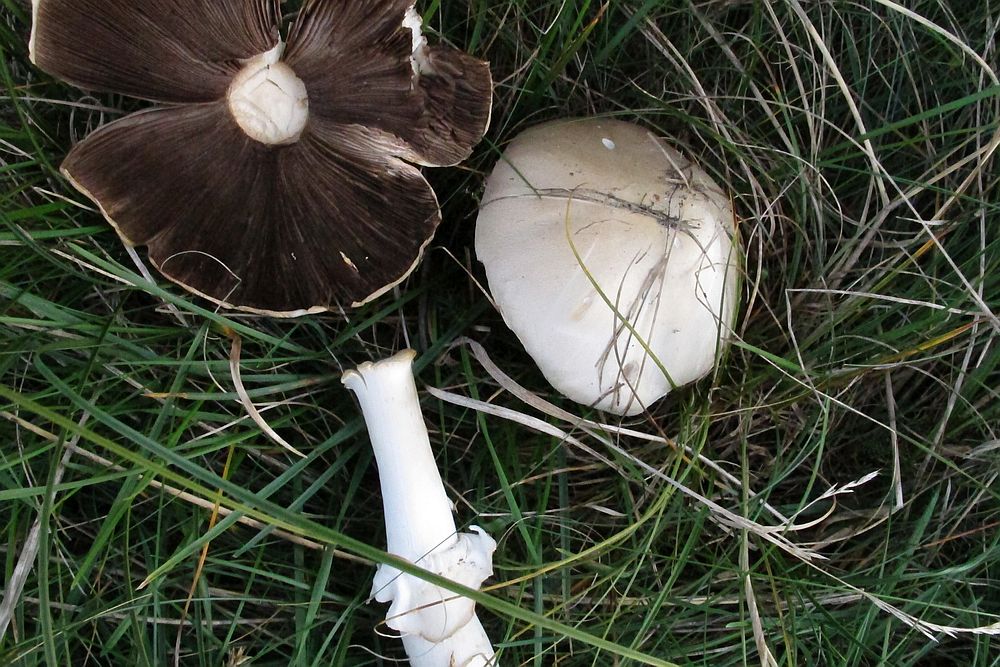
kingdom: Fungi
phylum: Basidiomycota
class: Agaricomycetes
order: Agaricales
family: Agaricaceae
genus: Agaricus
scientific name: Agaricus arvensis
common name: ager-champignon
